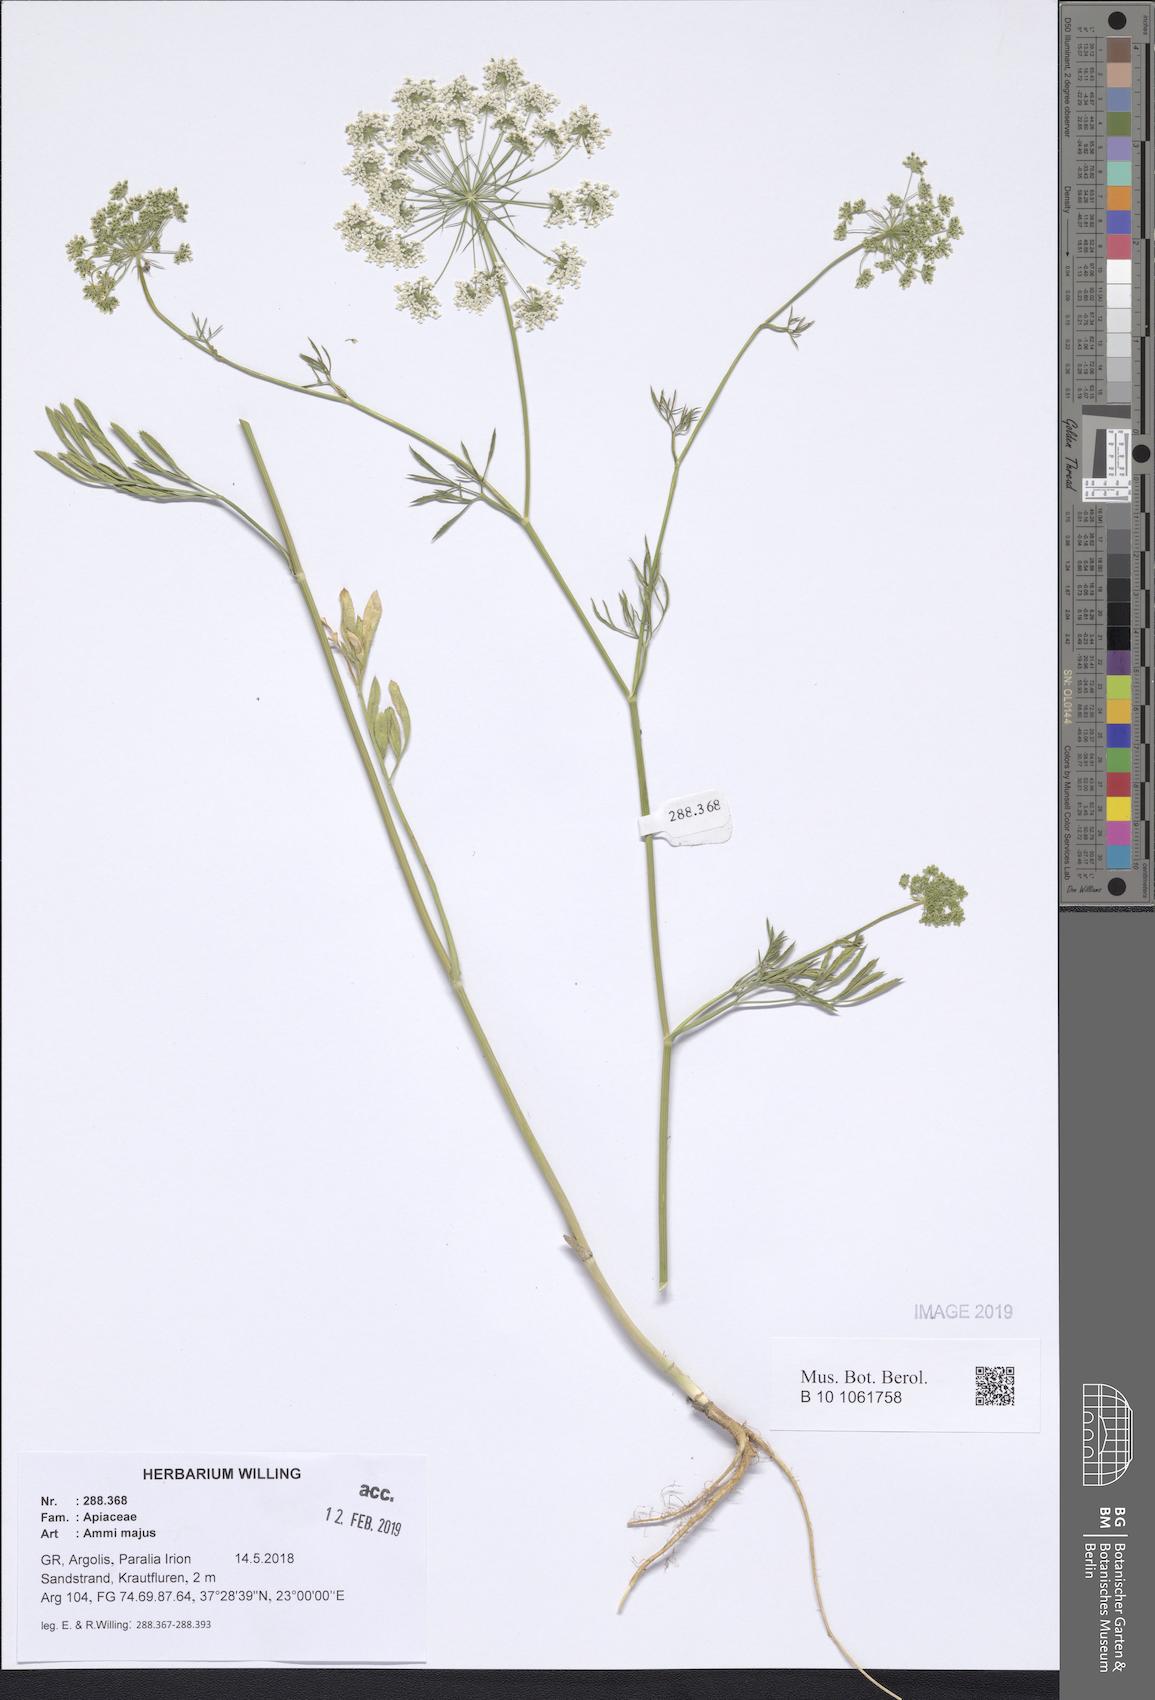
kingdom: Plantae
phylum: Tracheophyta
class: Magnoliopsida
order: Apiales
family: Apiaceae
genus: Ammi
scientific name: Ammi majus
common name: Bullwort
